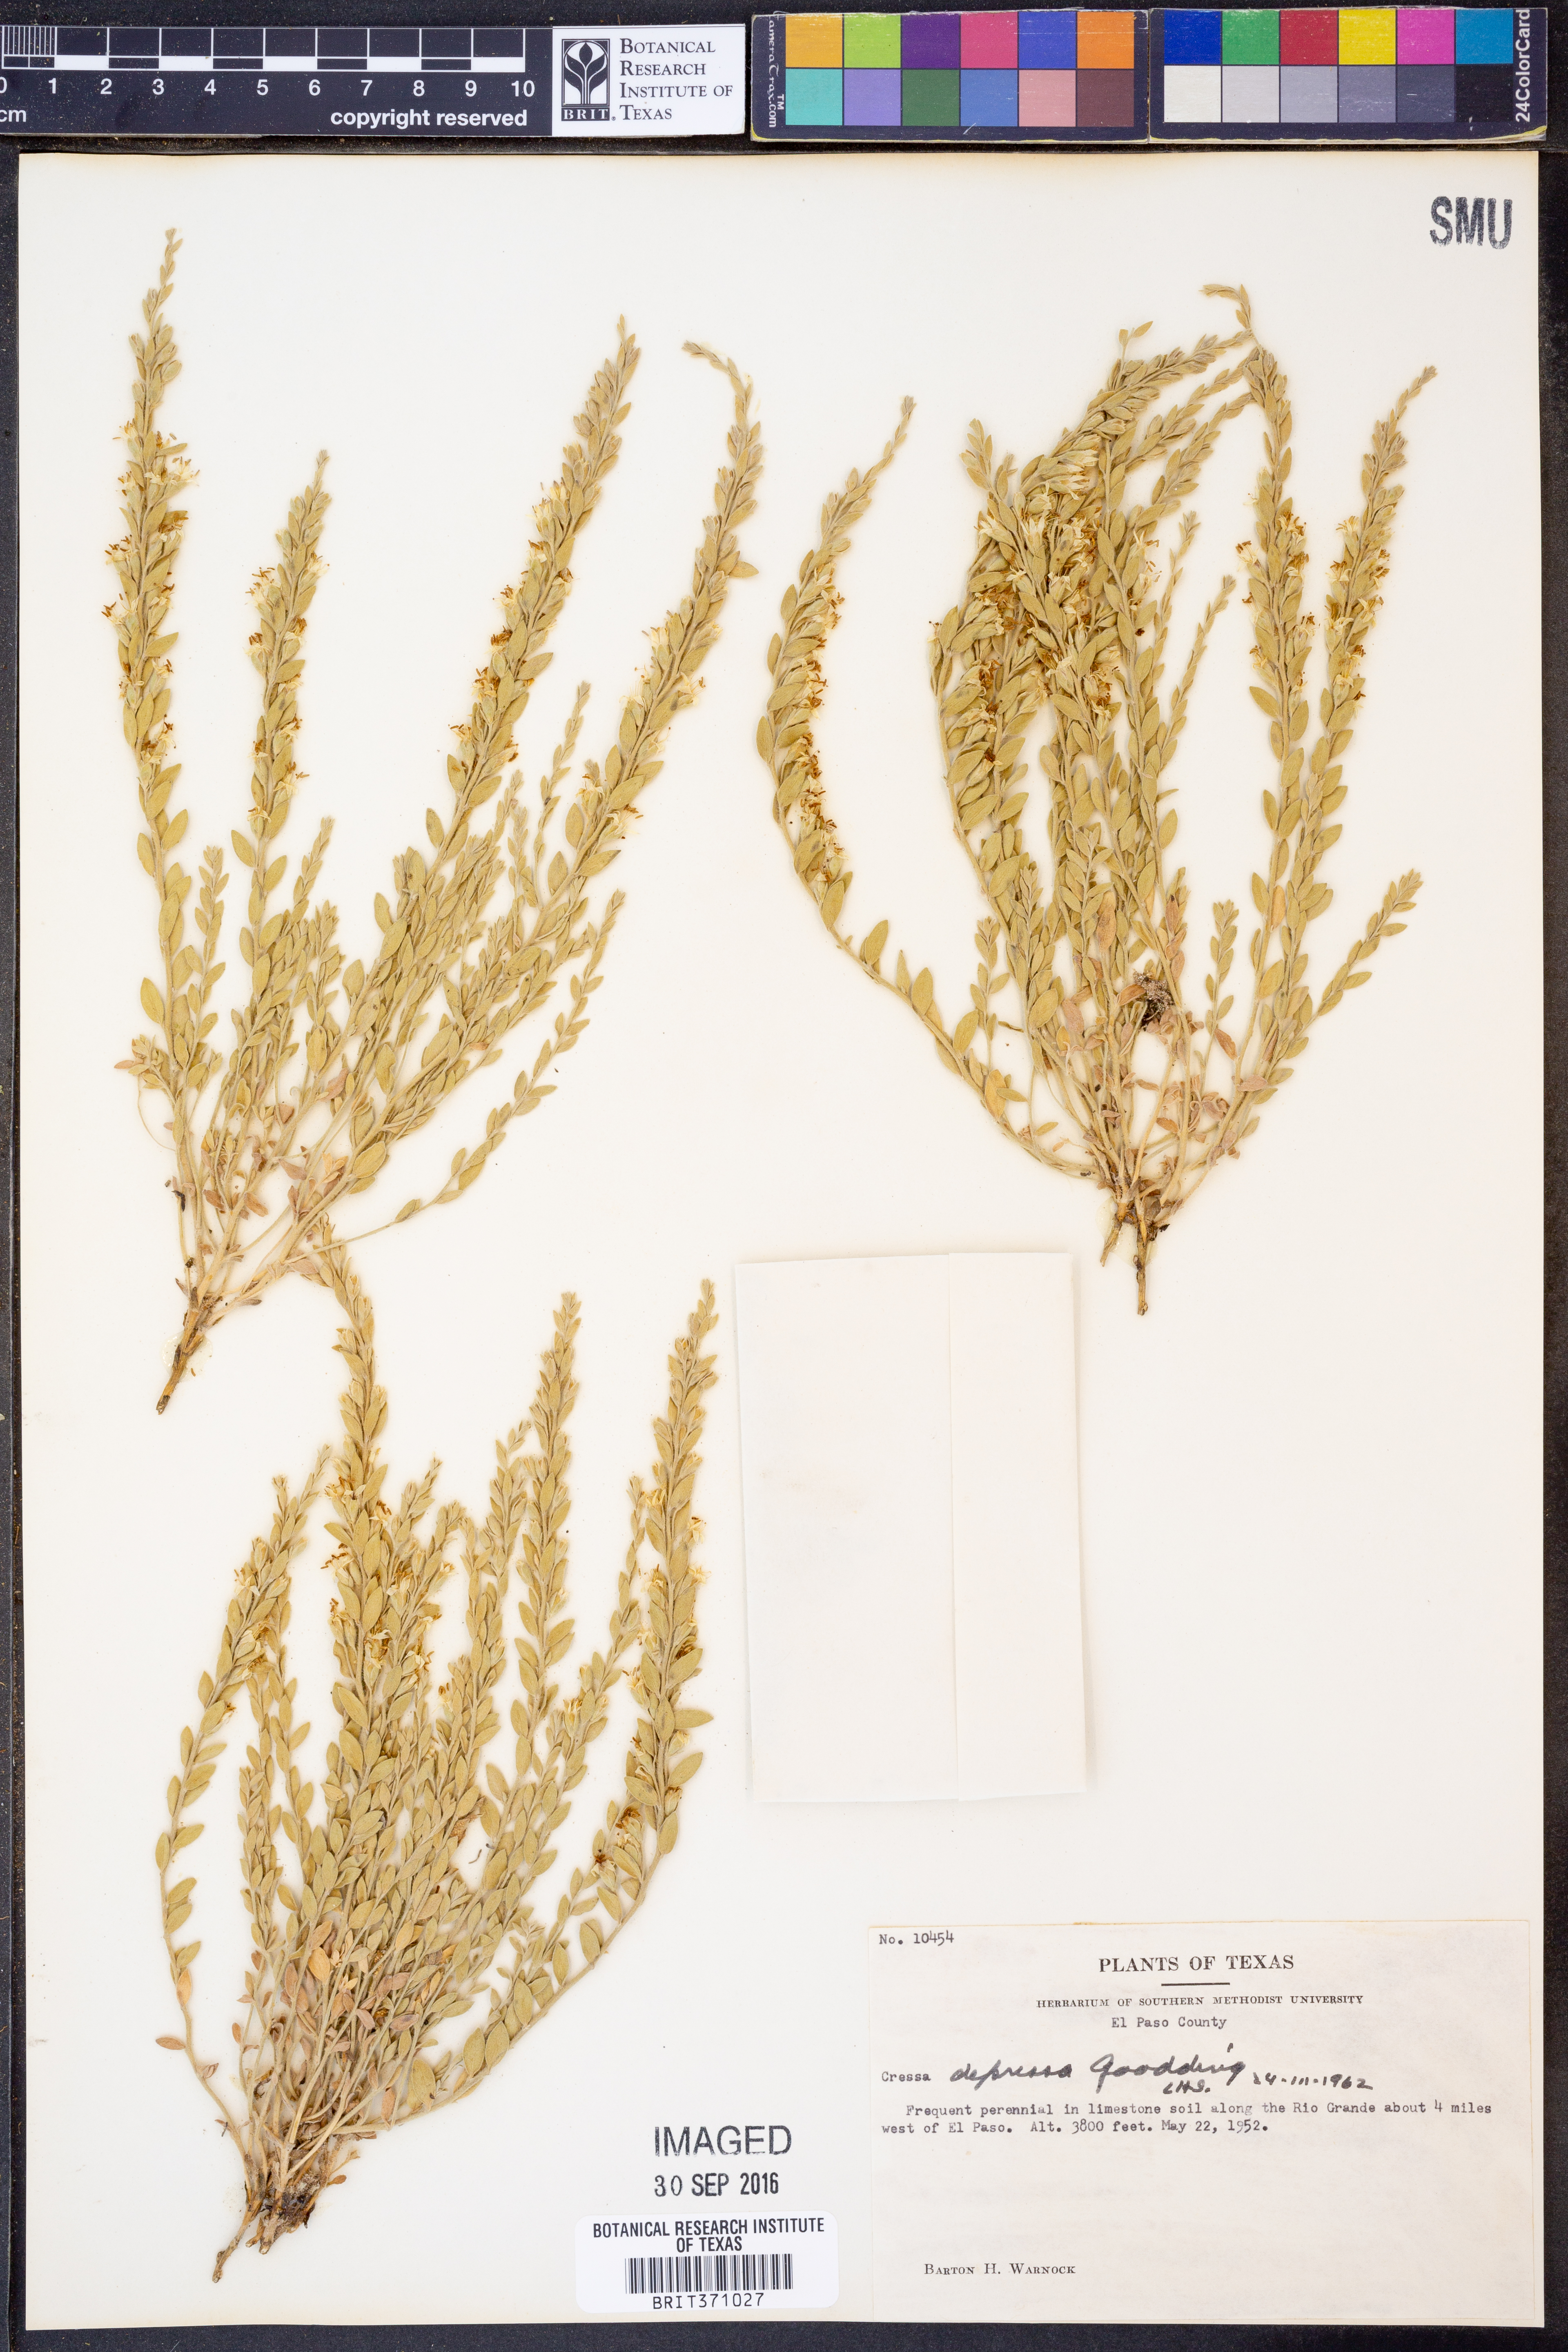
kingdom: Plantae
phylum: Tracheophyta
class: Magnoliopsida
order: Solanales
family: Convolvulaceae
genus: Cressa
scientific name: Cressa truxillensis
